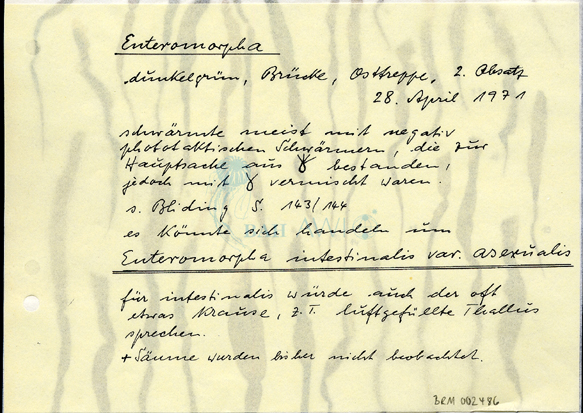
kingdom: Plantae
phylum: Chlorophyta
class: Ulvophyceae
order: Ulvales
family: Ulvaceae
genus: Ulva
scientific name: Ulva intestinalis
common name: Gut weed
